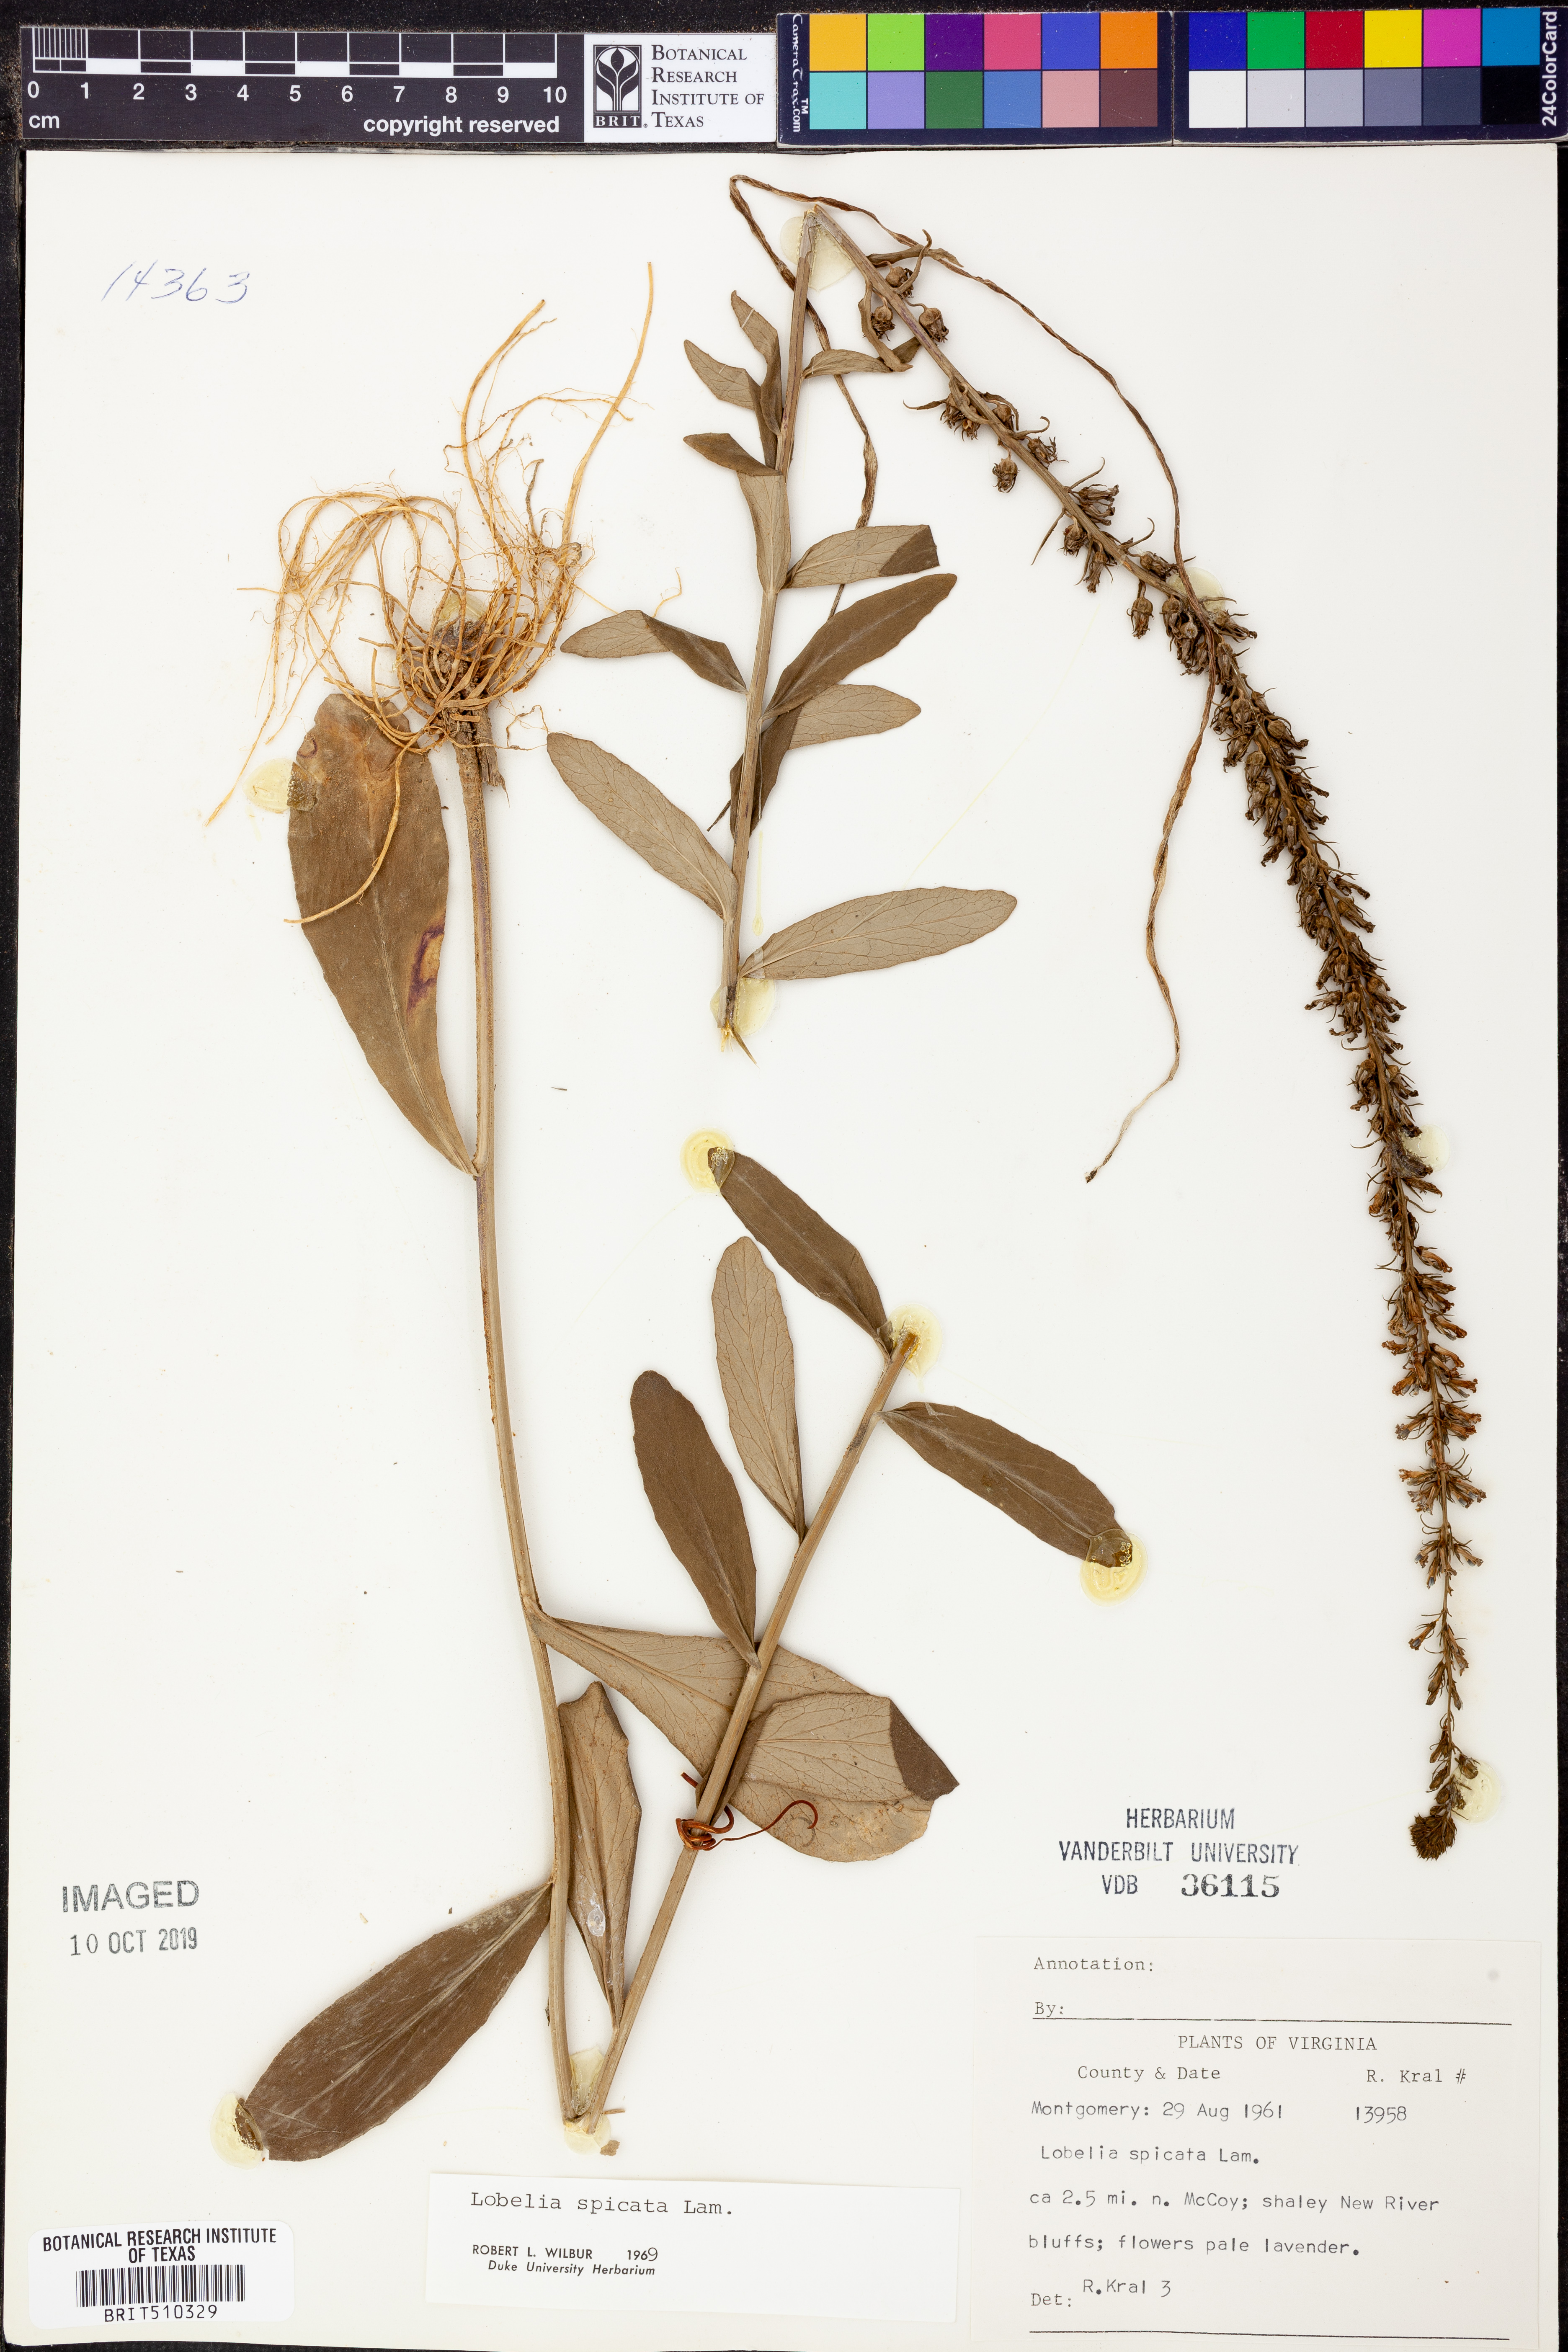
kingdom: Plantae
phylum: Tracheophyta
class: Magnoliopsida
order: Asterales
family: Campanulaceae
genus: Lobelia
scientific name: Lobelia spicata
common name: Pale-spike lobelia
